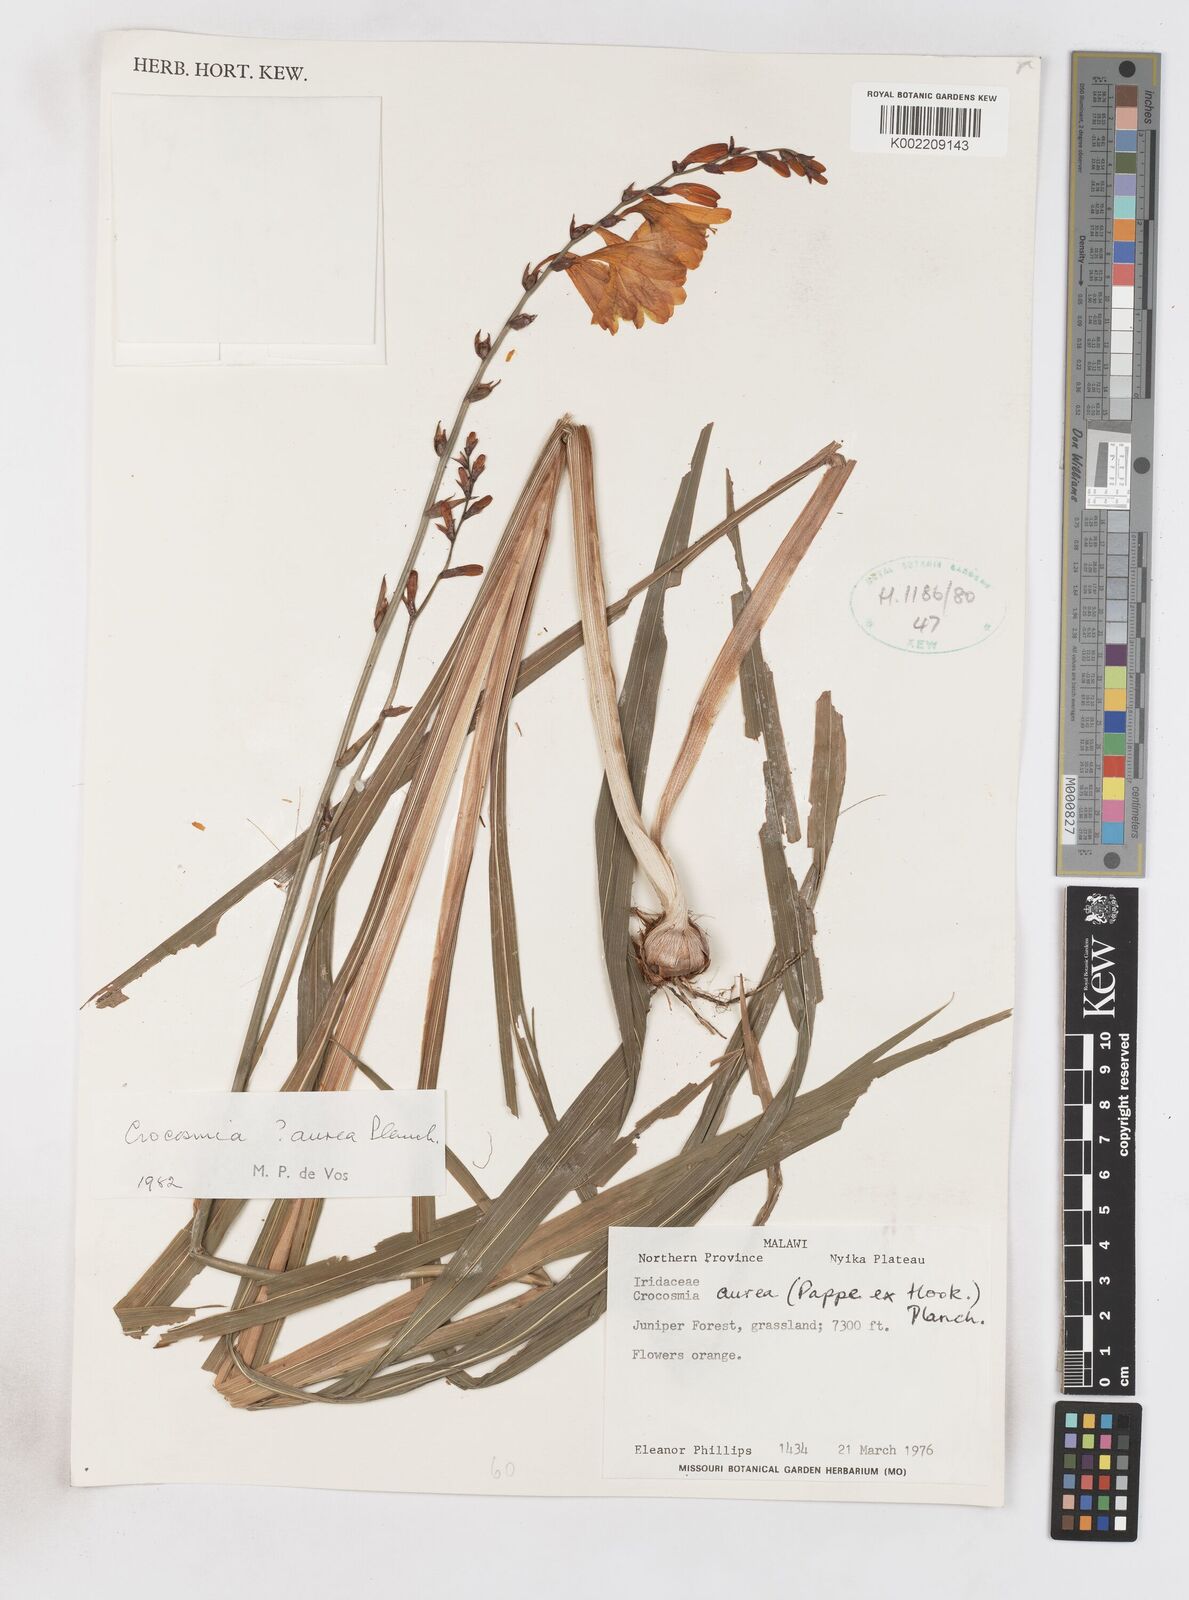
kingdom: Plantae
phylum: Tracheophyta
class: Liliopsida
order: Asparagales
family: Iridaceae
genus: Crocosmia
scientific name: Crocosmia aurea
